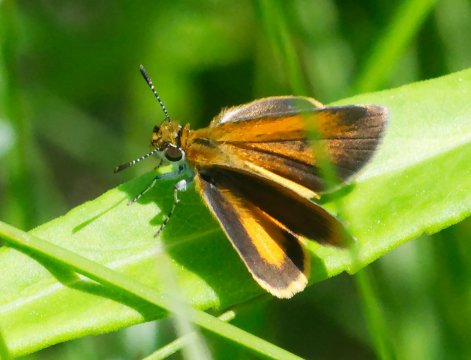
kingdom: Animalia
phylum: Arthropoda
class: Insecta
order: Lepidoptera
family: Hesperiidae
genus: Ancyloxypha
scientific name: Ancyloxypha numitor
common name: Least Skipper
